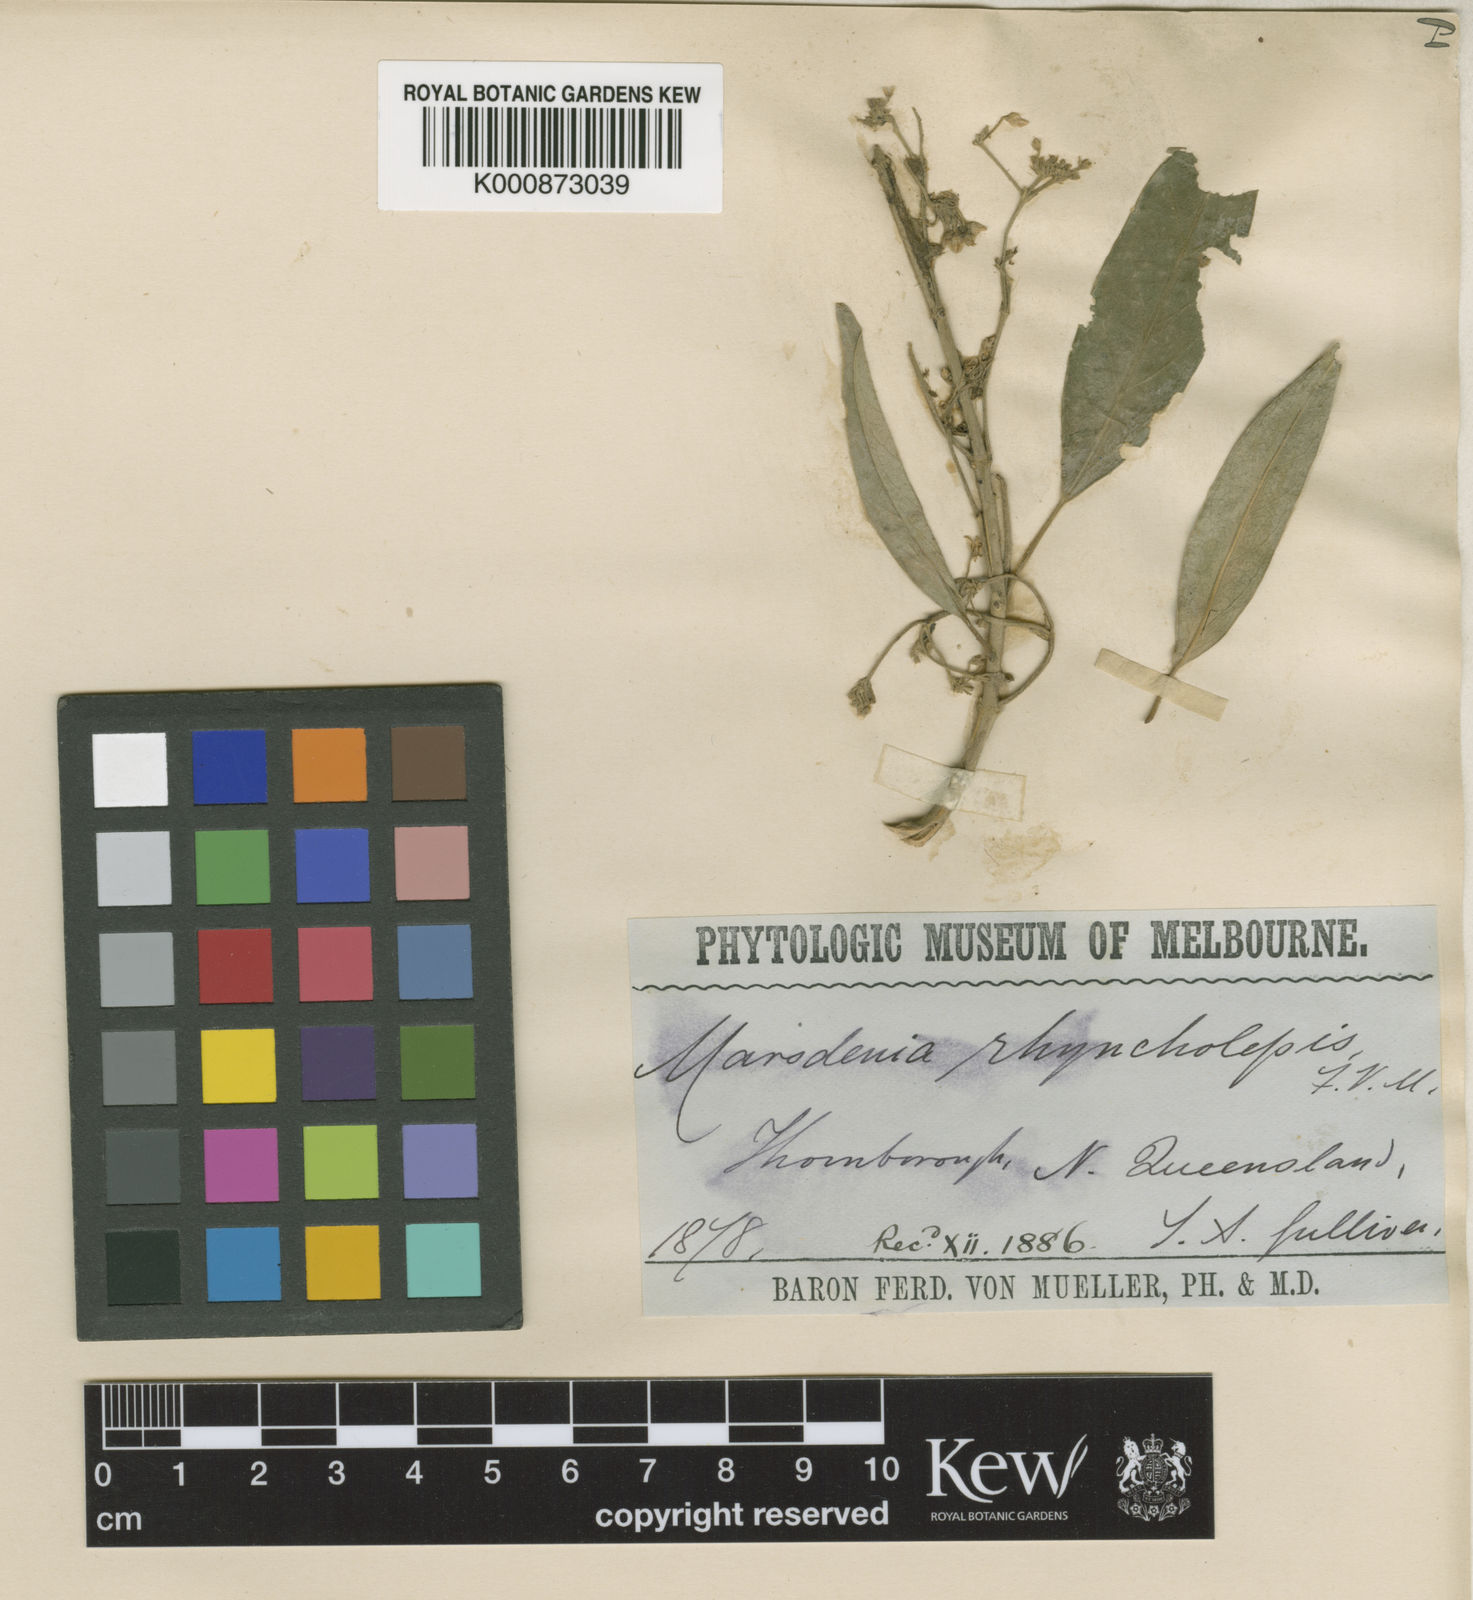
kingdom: Plantae
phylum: Tracheophyta
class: Magnoliopsida
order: Gentianales
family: Apocynaceae
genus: Leichhardtia
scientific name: Leichhardtia cymulosa
